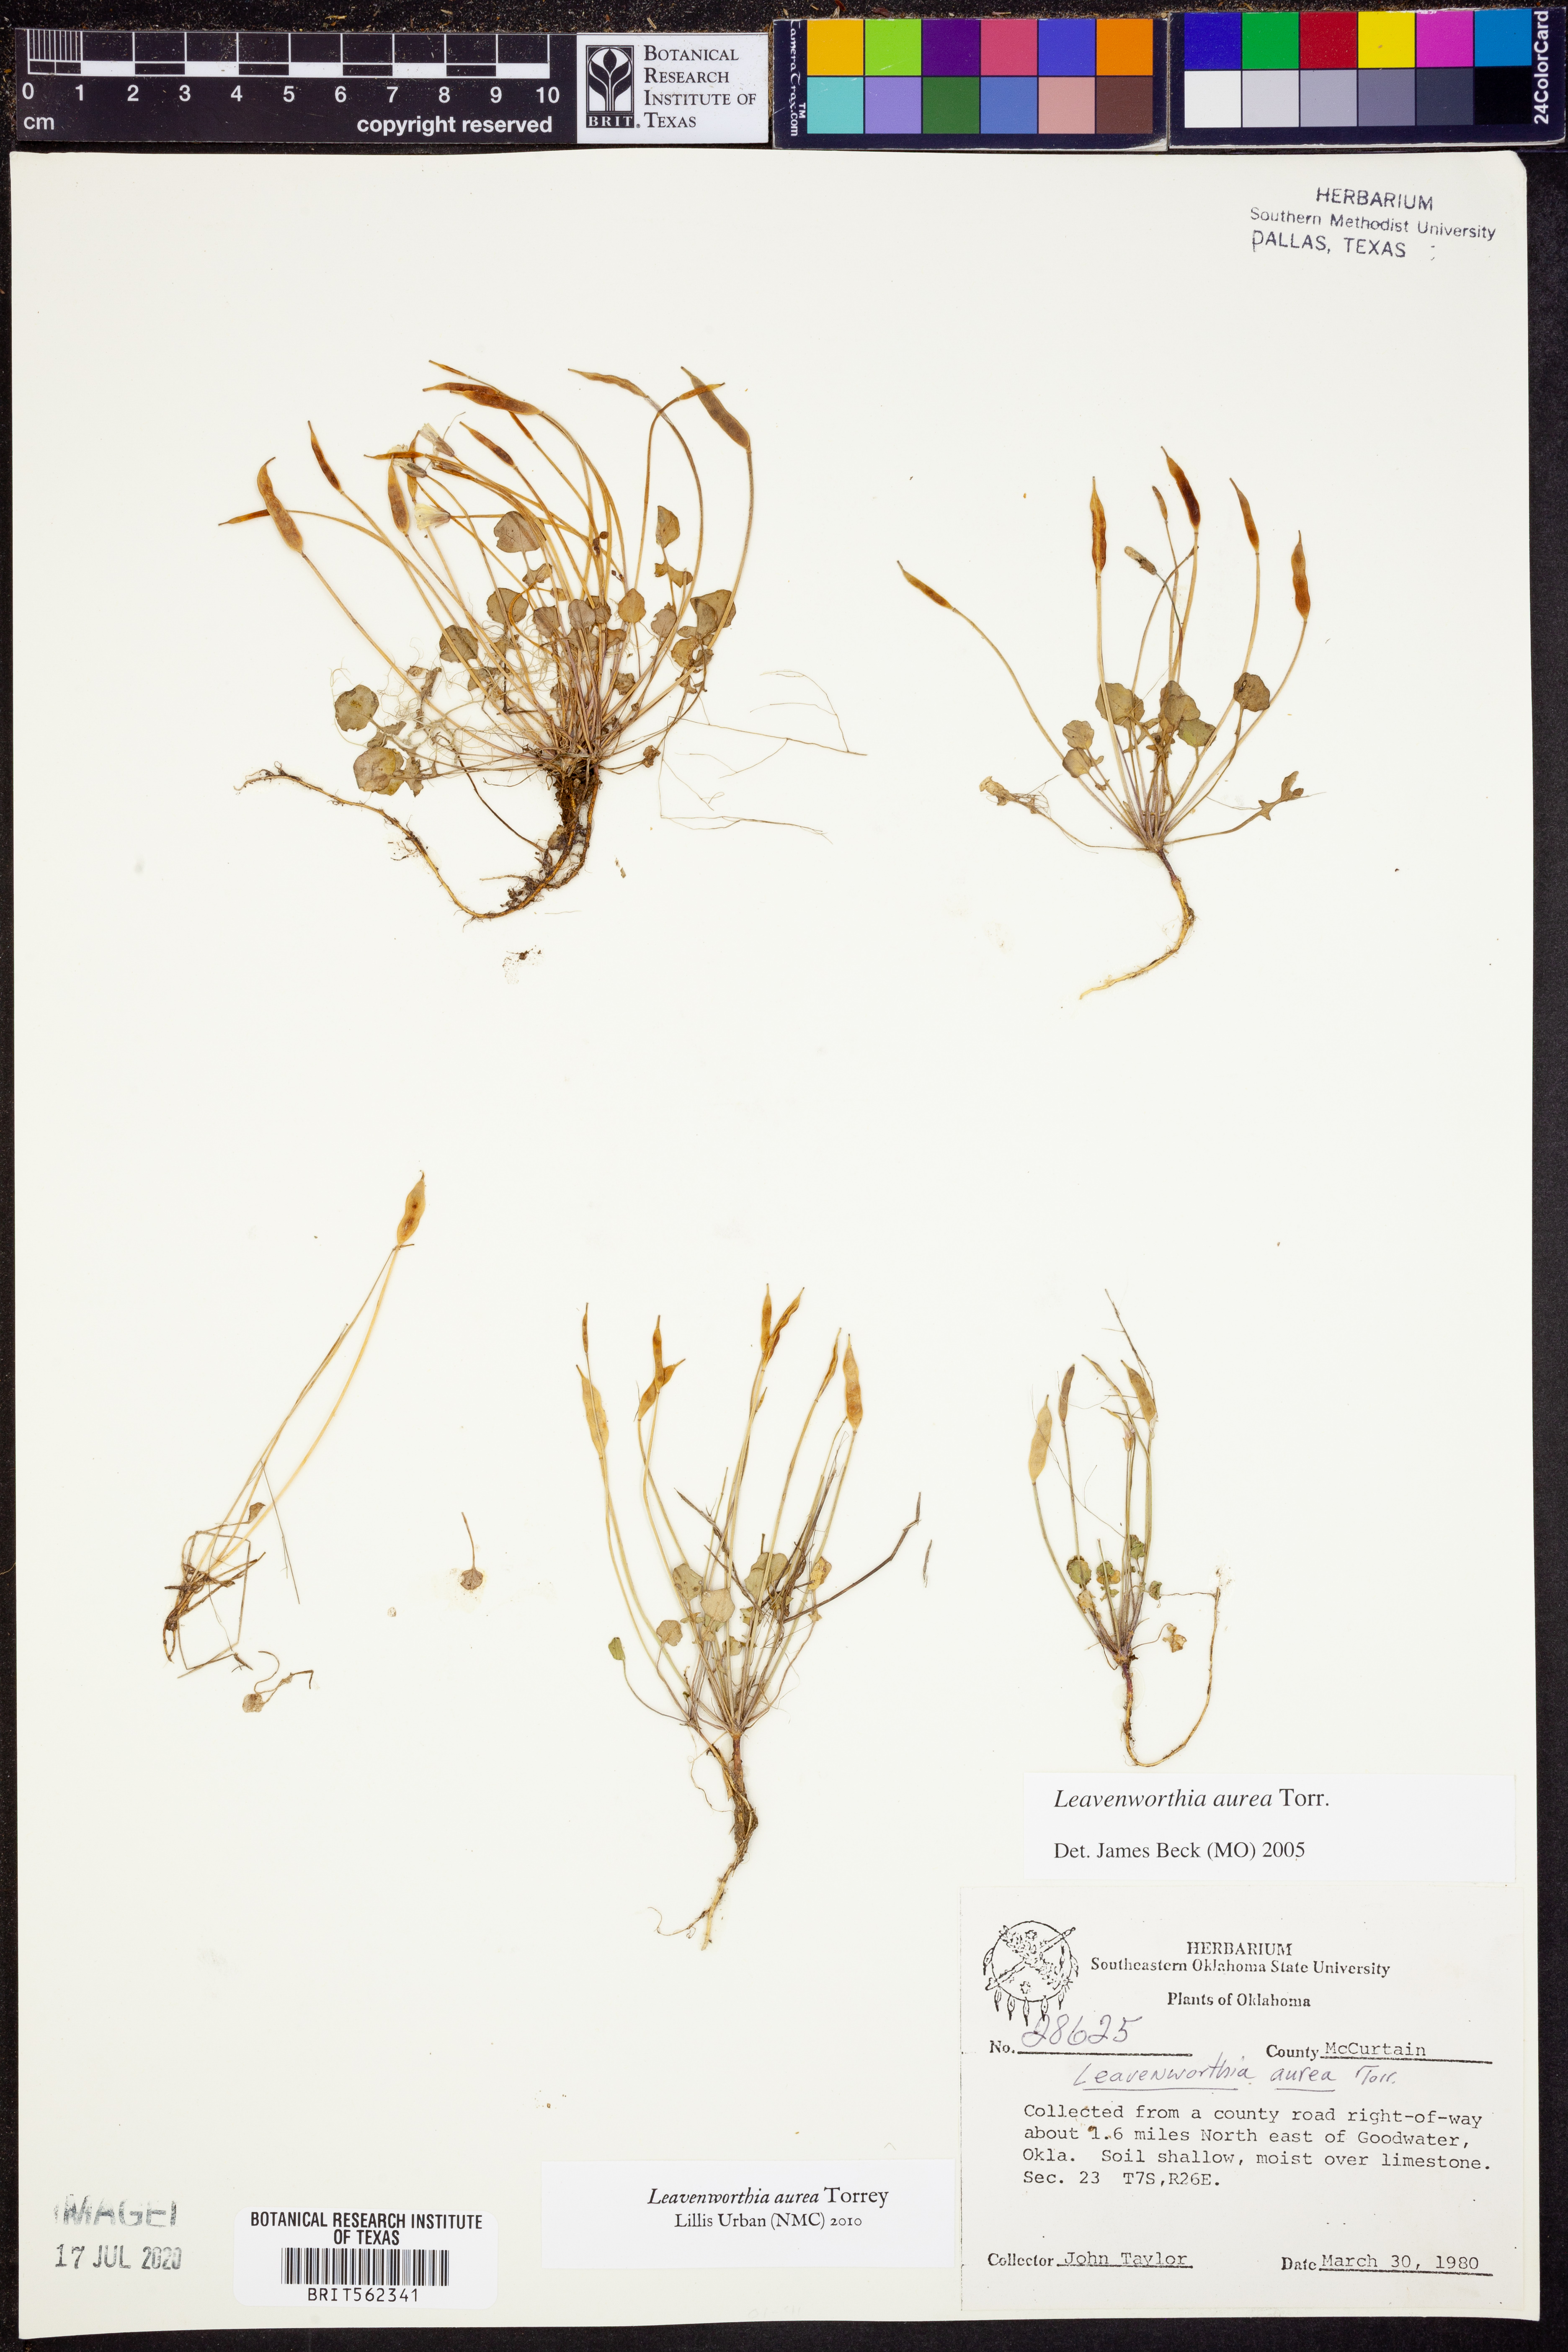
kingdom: Plantae
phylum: Tracheophyta
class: Magnoliopsida
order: Brassicales
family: Brassicaceae
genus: Leavenworthia
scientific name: Leavenworthia aurea
